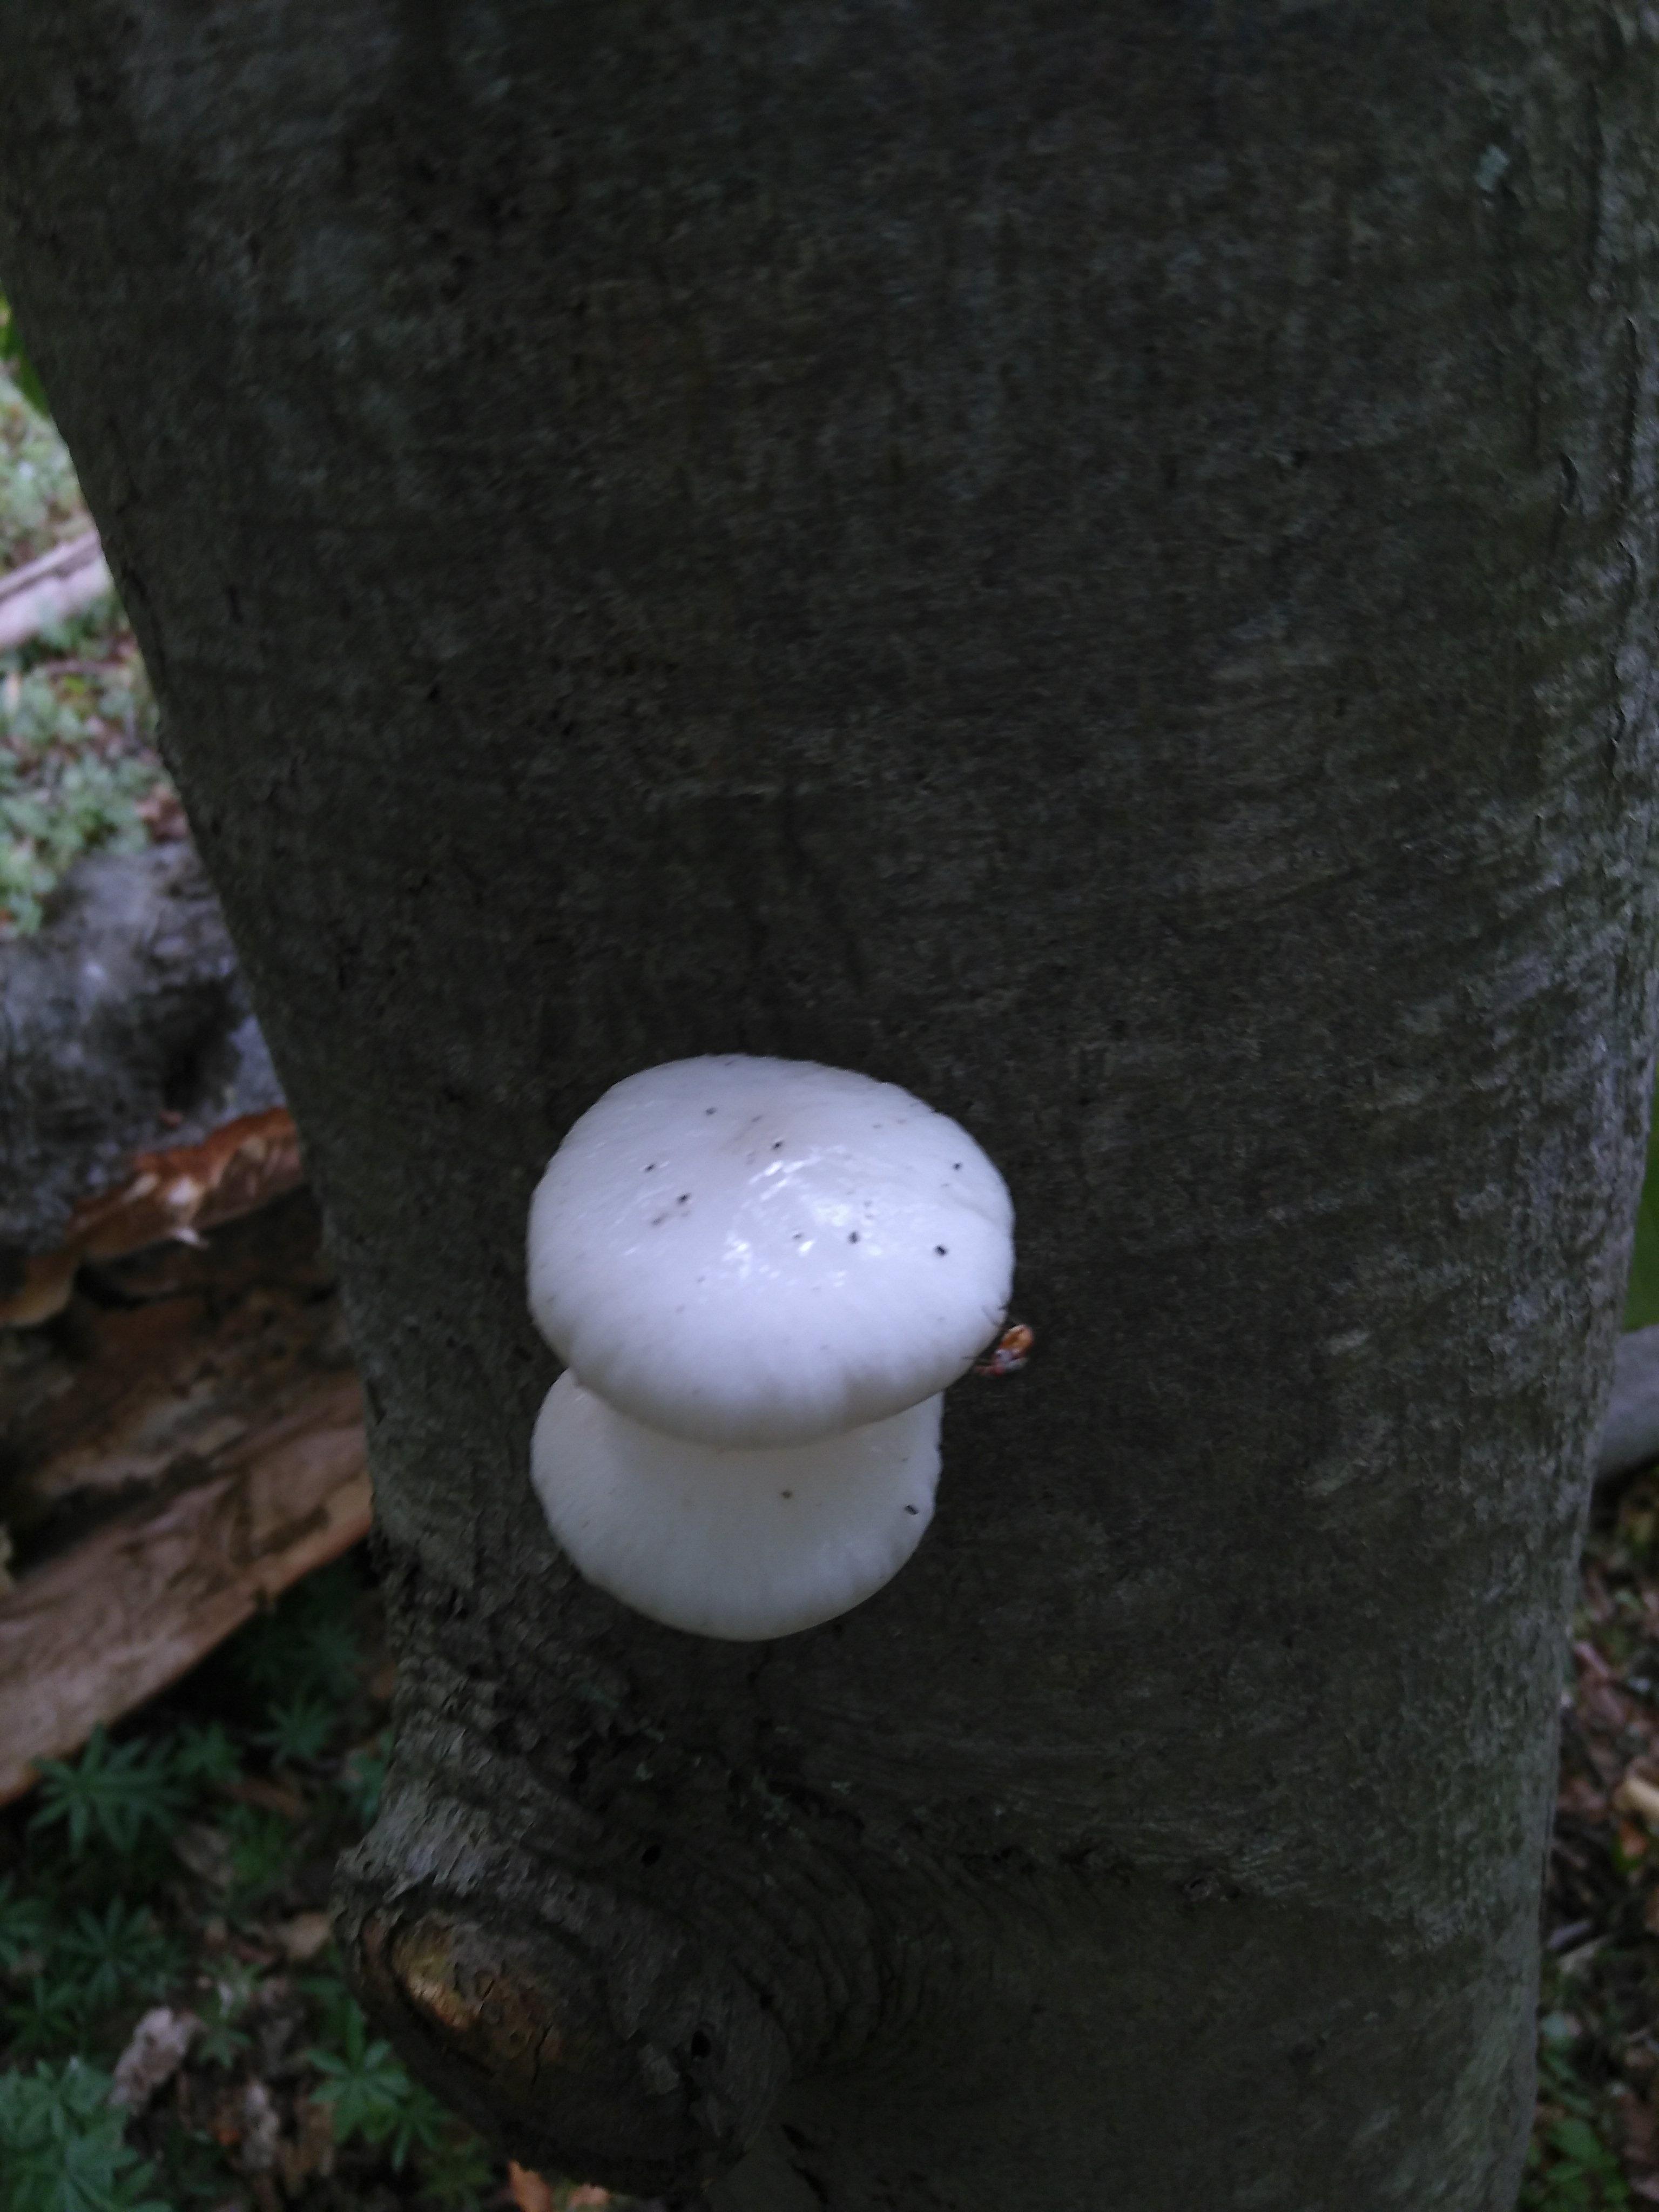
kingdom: Fungi
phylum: Basidiomycota
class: Agaricomycetes
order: Agaricales
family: Physalacriaceae
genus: Mucidula
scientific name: Mucidula mucida
